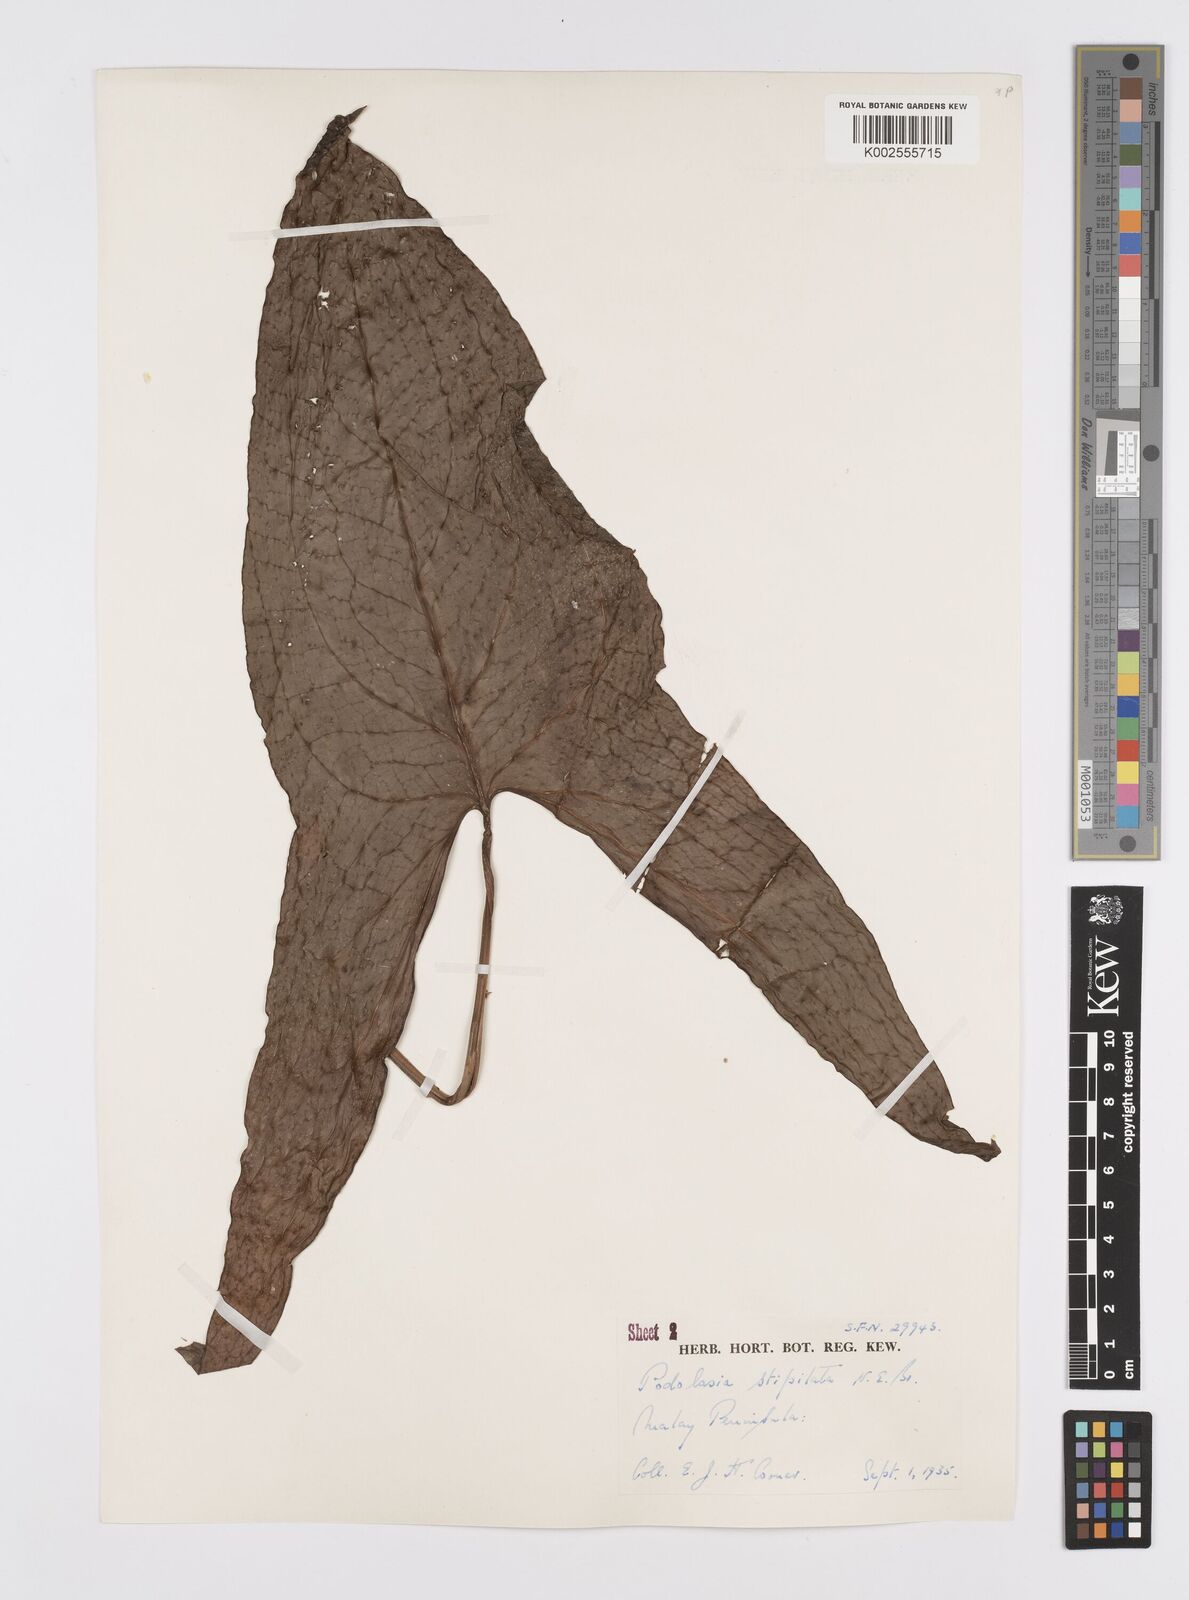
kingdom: Plantae
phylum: Tracheophyta
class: Liliopsida
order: Alismatales
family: Araceae
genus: Podolasia
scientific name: Podolasia stipitata
